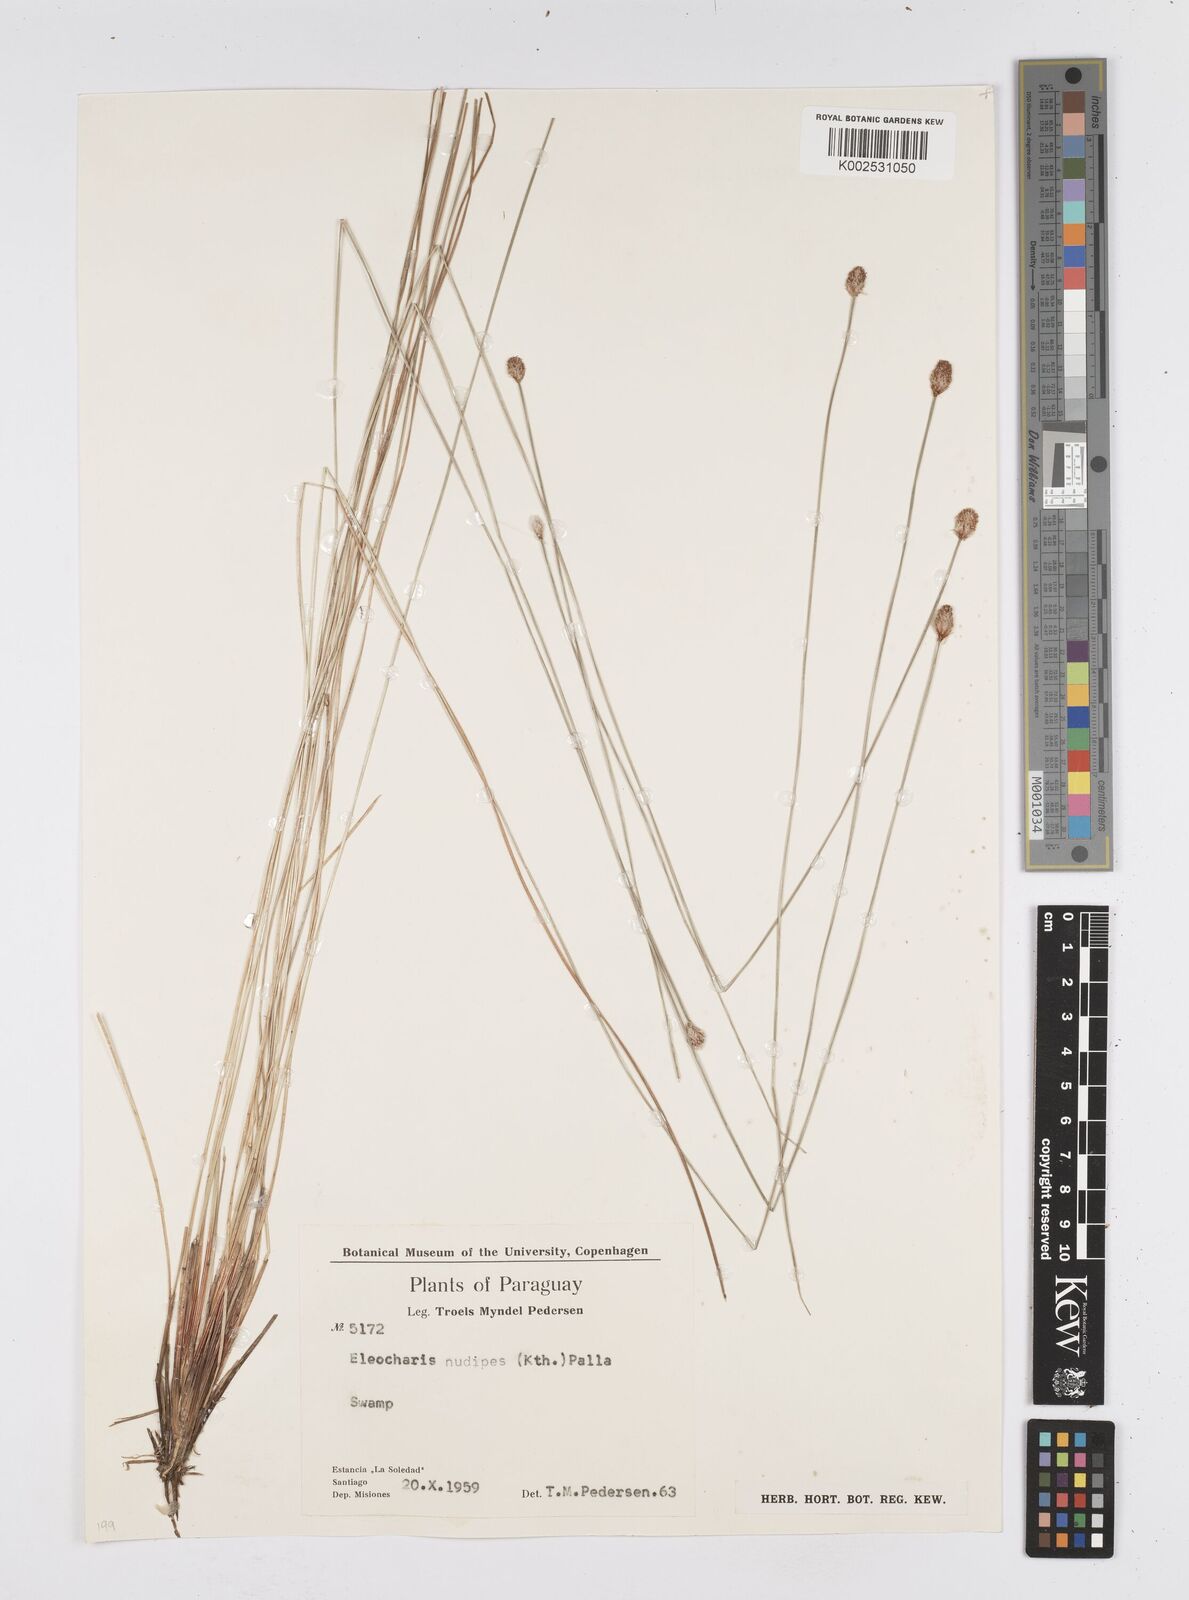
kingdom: Plantae
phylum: Tracheophyta
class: Liliopsida
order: Poales
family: Cyperaceae
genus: Eleocharis
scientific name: Eleocharis nudipes
